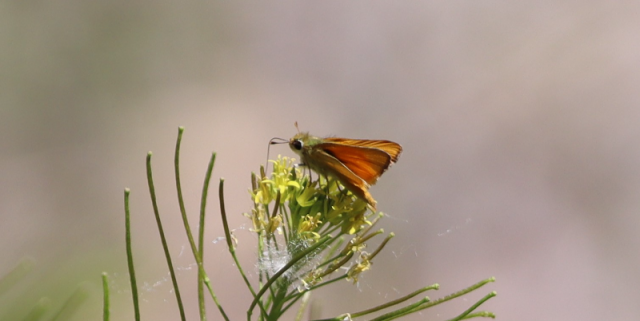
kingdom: Animalia
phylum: Arthropoda
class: Insecta
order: Lepidoptera
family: Hesperiidae
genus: Copaeodes
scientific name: Copaeodes aurantiaca
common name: Orange Skipperling
